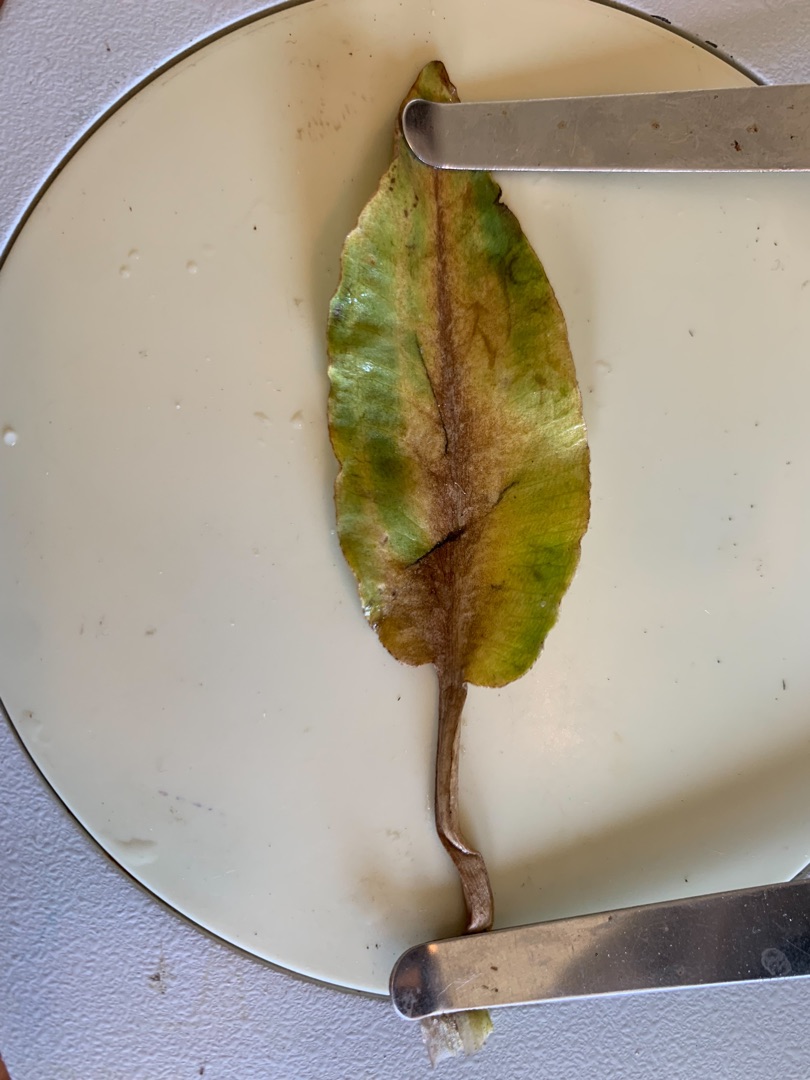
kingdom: Plantae
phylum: Tracheophyta
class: Liliopsida
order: Alismatales
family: Alismataceae
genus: Alisma
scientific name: Alisma plantago-aquatica
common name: Vejbred-skeblad
